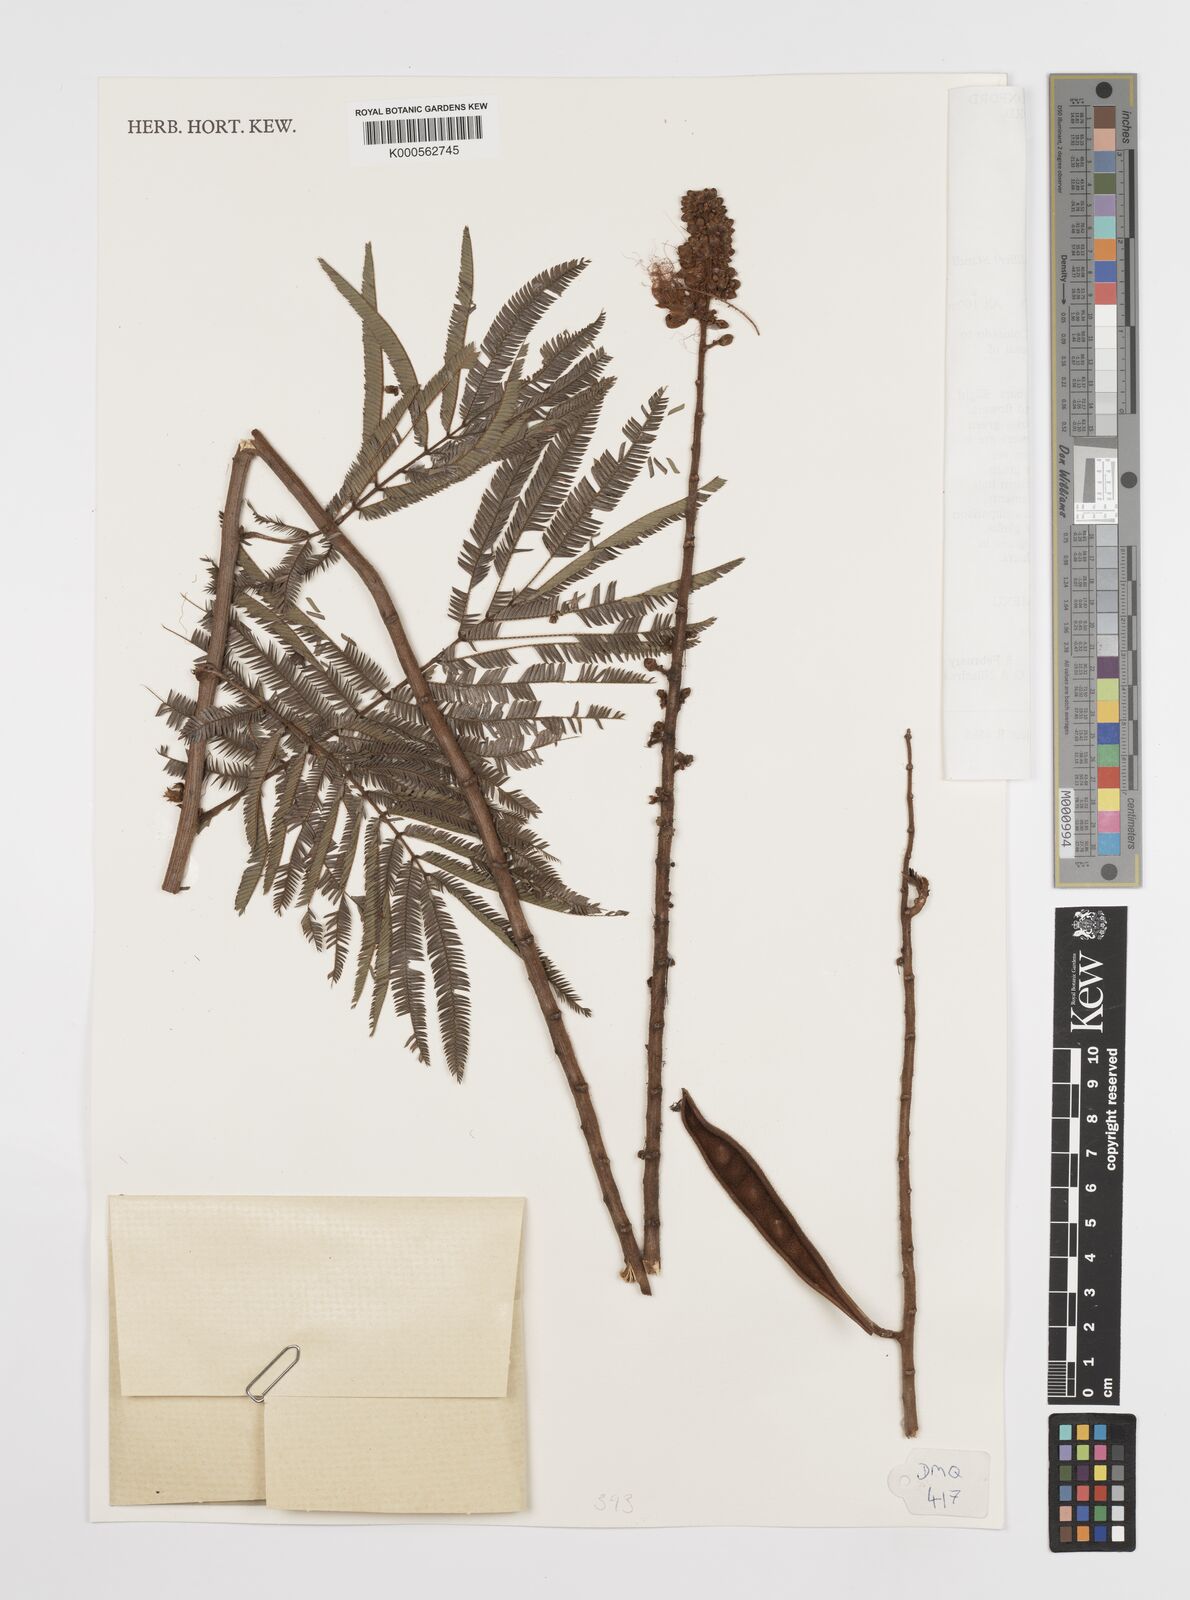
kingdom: Plantae
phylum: Tracheophyta
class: Magnoliopsida
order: Fabales
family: Fabaceae
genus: Calliandra
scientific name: Calliandra houstoniana
